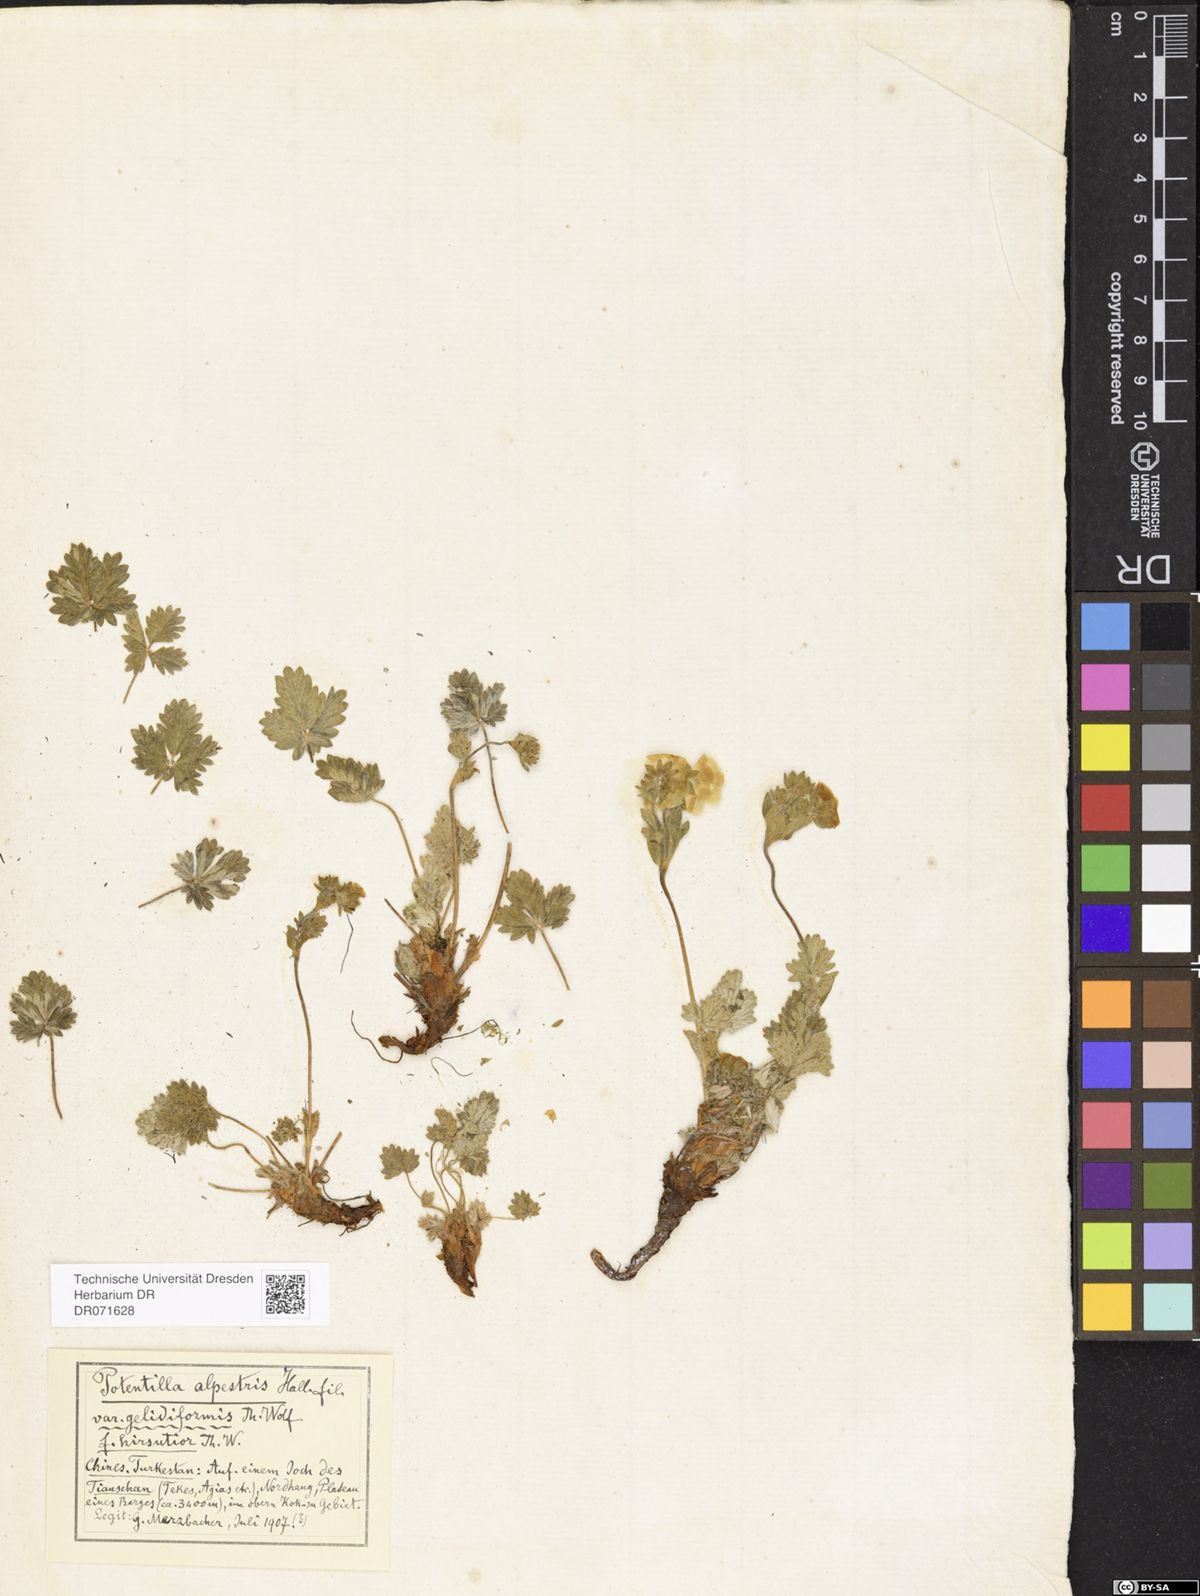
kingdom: Plantae
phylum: Tracheophyta
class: Magnoliopsida
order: Rosales
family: Rosaceae
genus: Potentilla
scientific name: Potentilla crantzii
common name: Alpine cinquefoil
